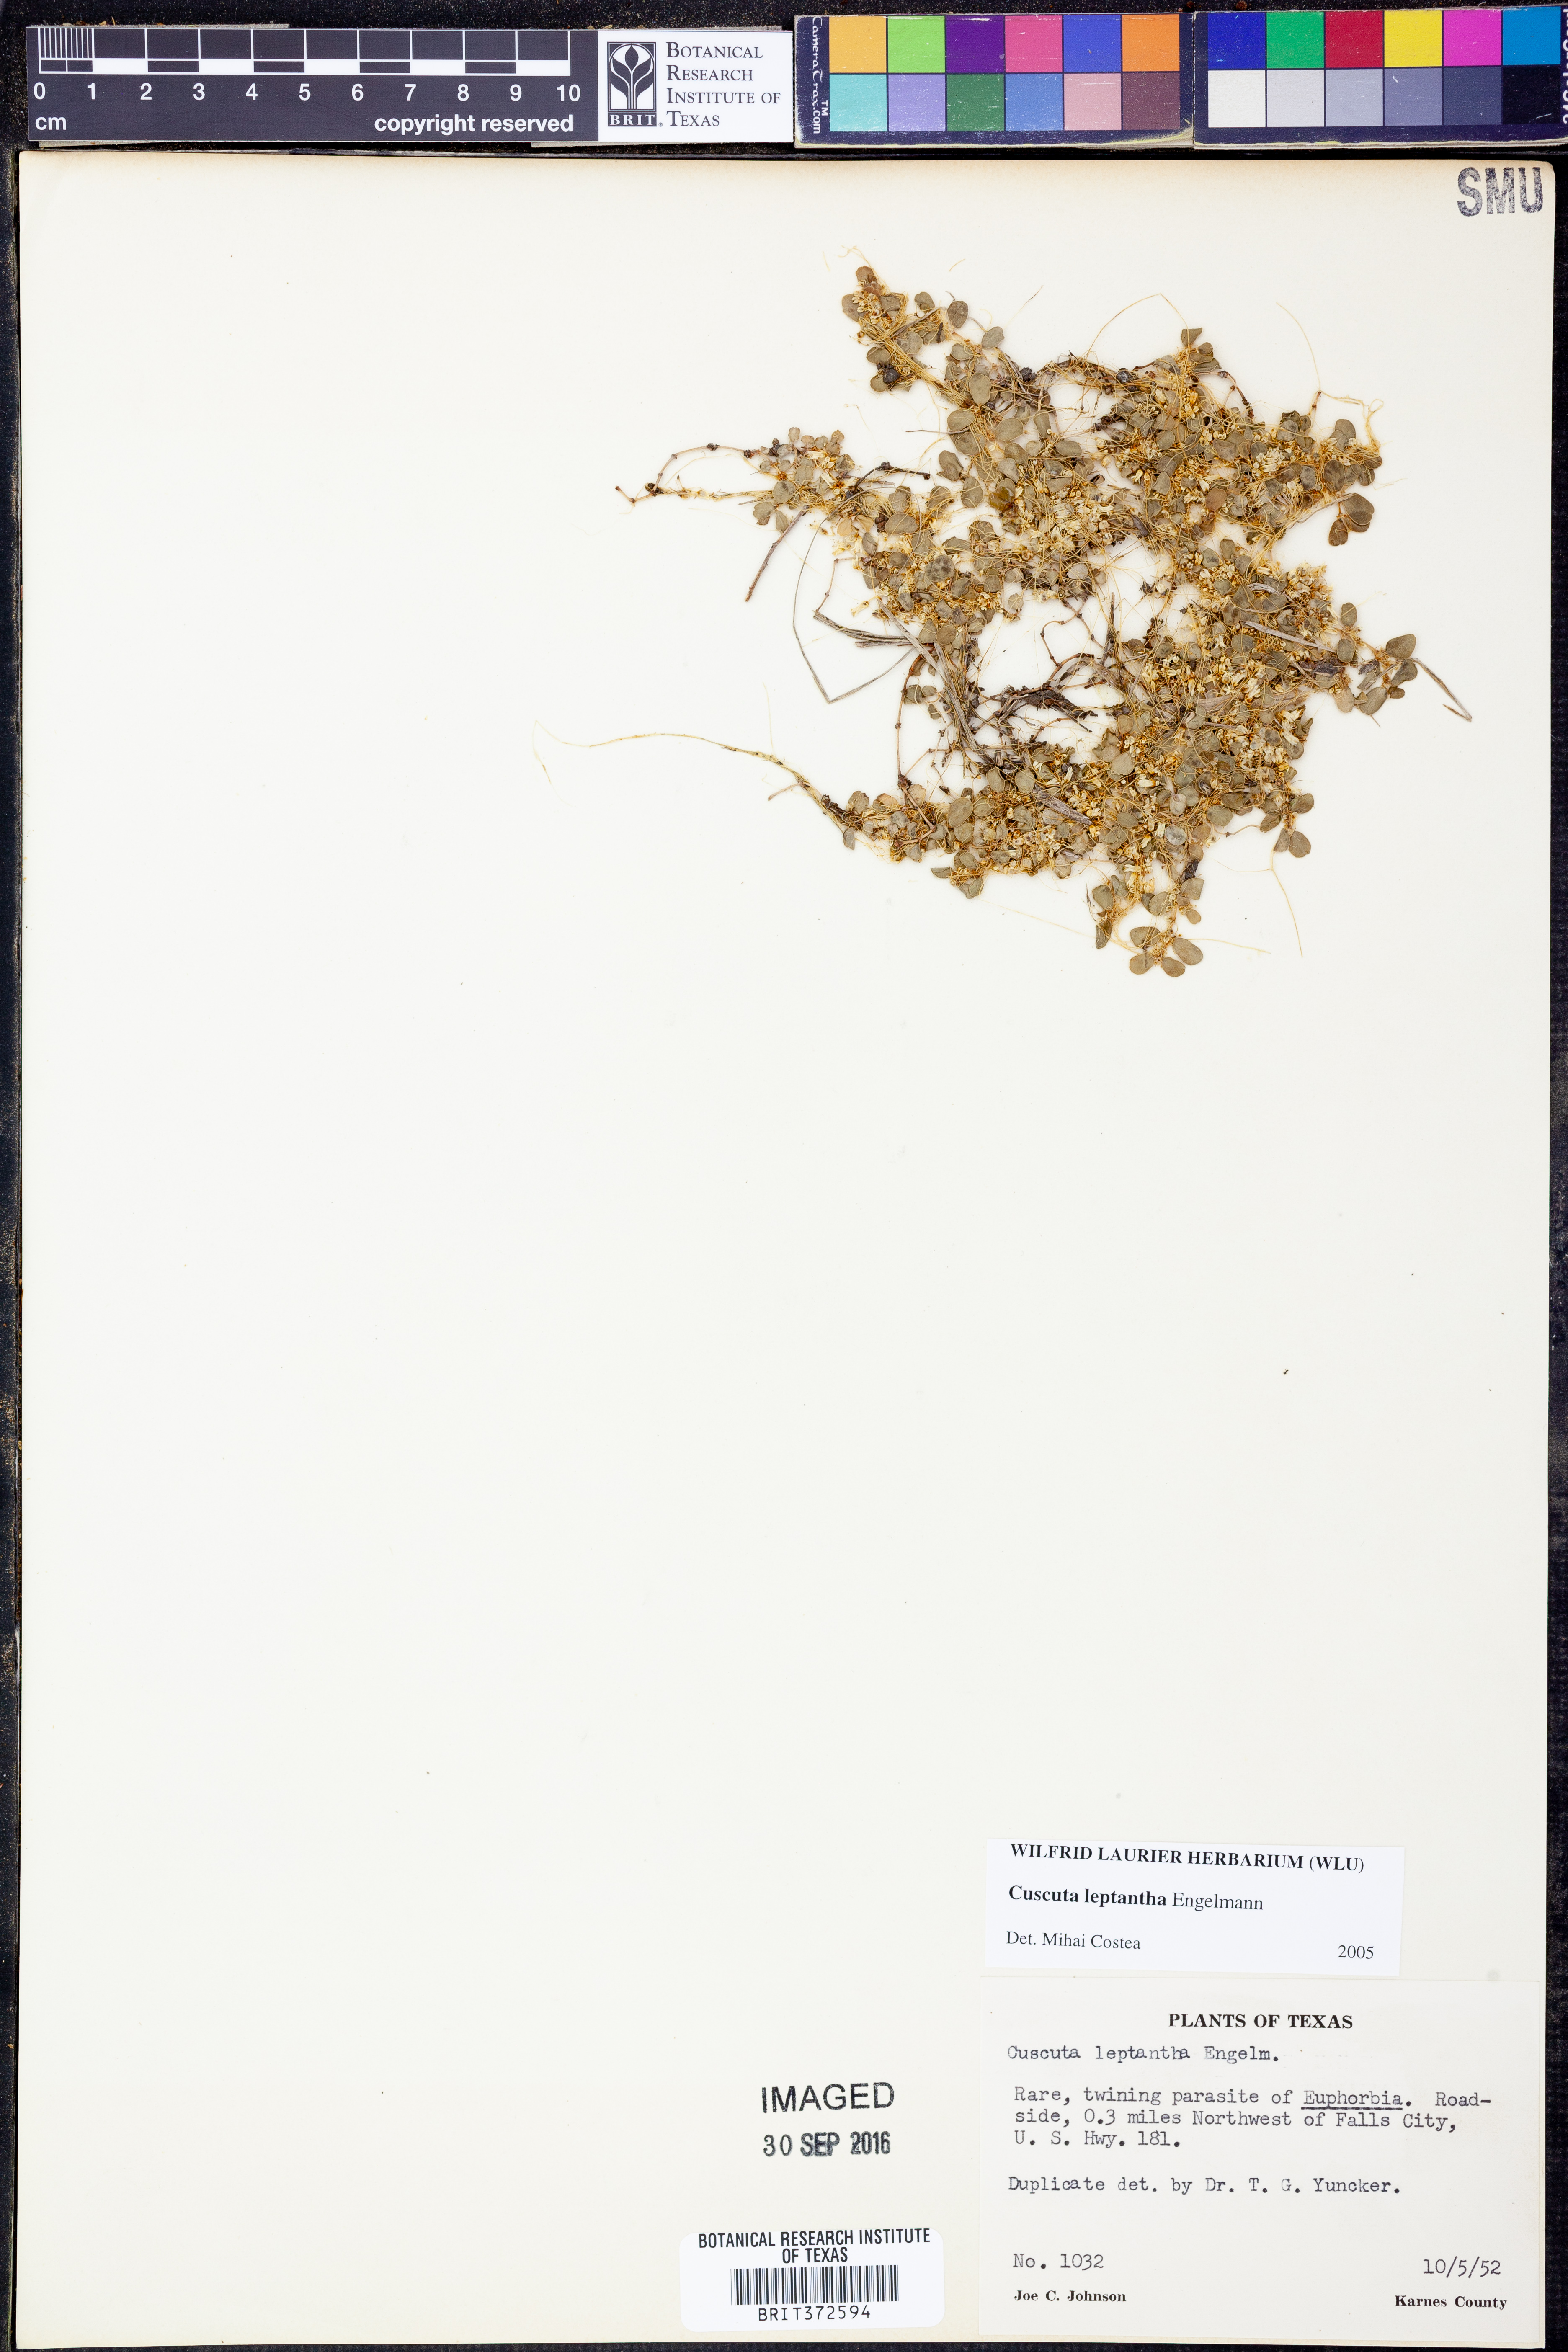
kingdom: Plantae
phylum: Tracheophyta
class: Magnoliopsida
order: Solanales
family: Convolvulaceae
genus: Cuscuta
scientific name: Cuscuta leptantha
